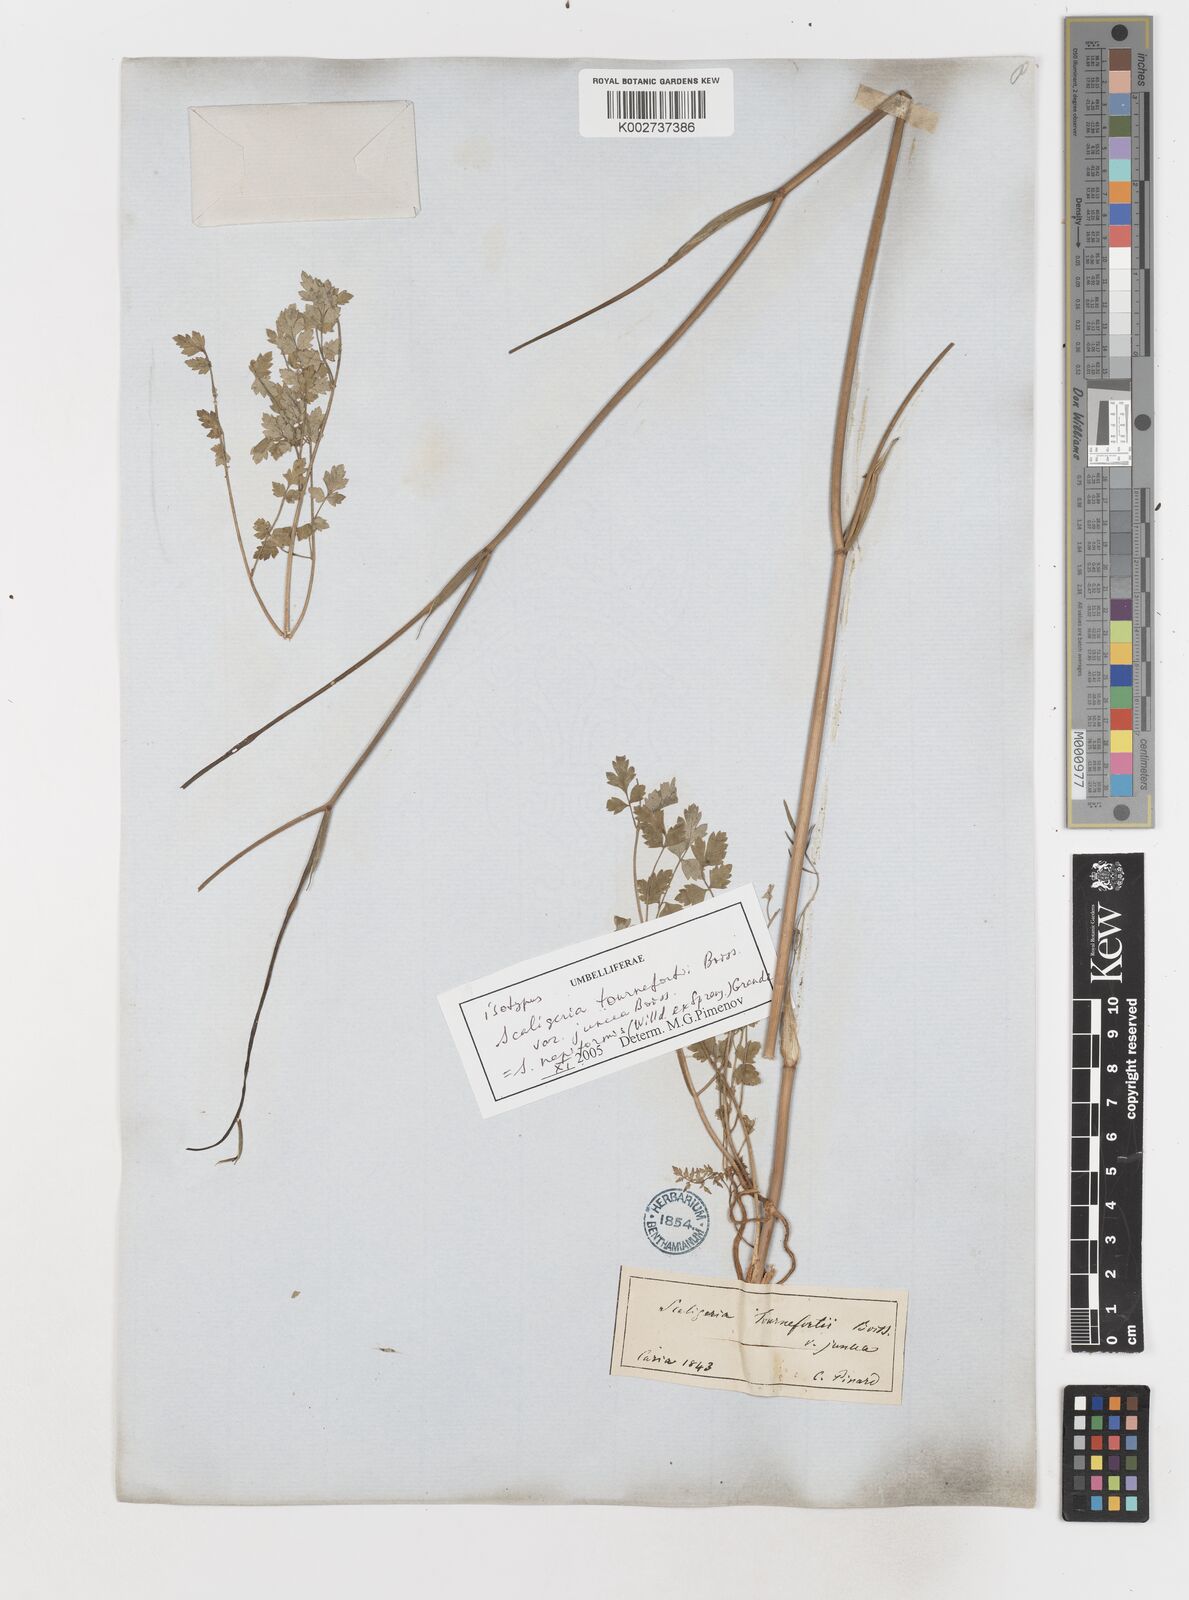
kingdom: Plantae
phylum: Tracheophyta
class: Magnoliopsida
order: Apiales
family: Apiaceae
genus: Scaligeria
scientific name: Scaligeria
